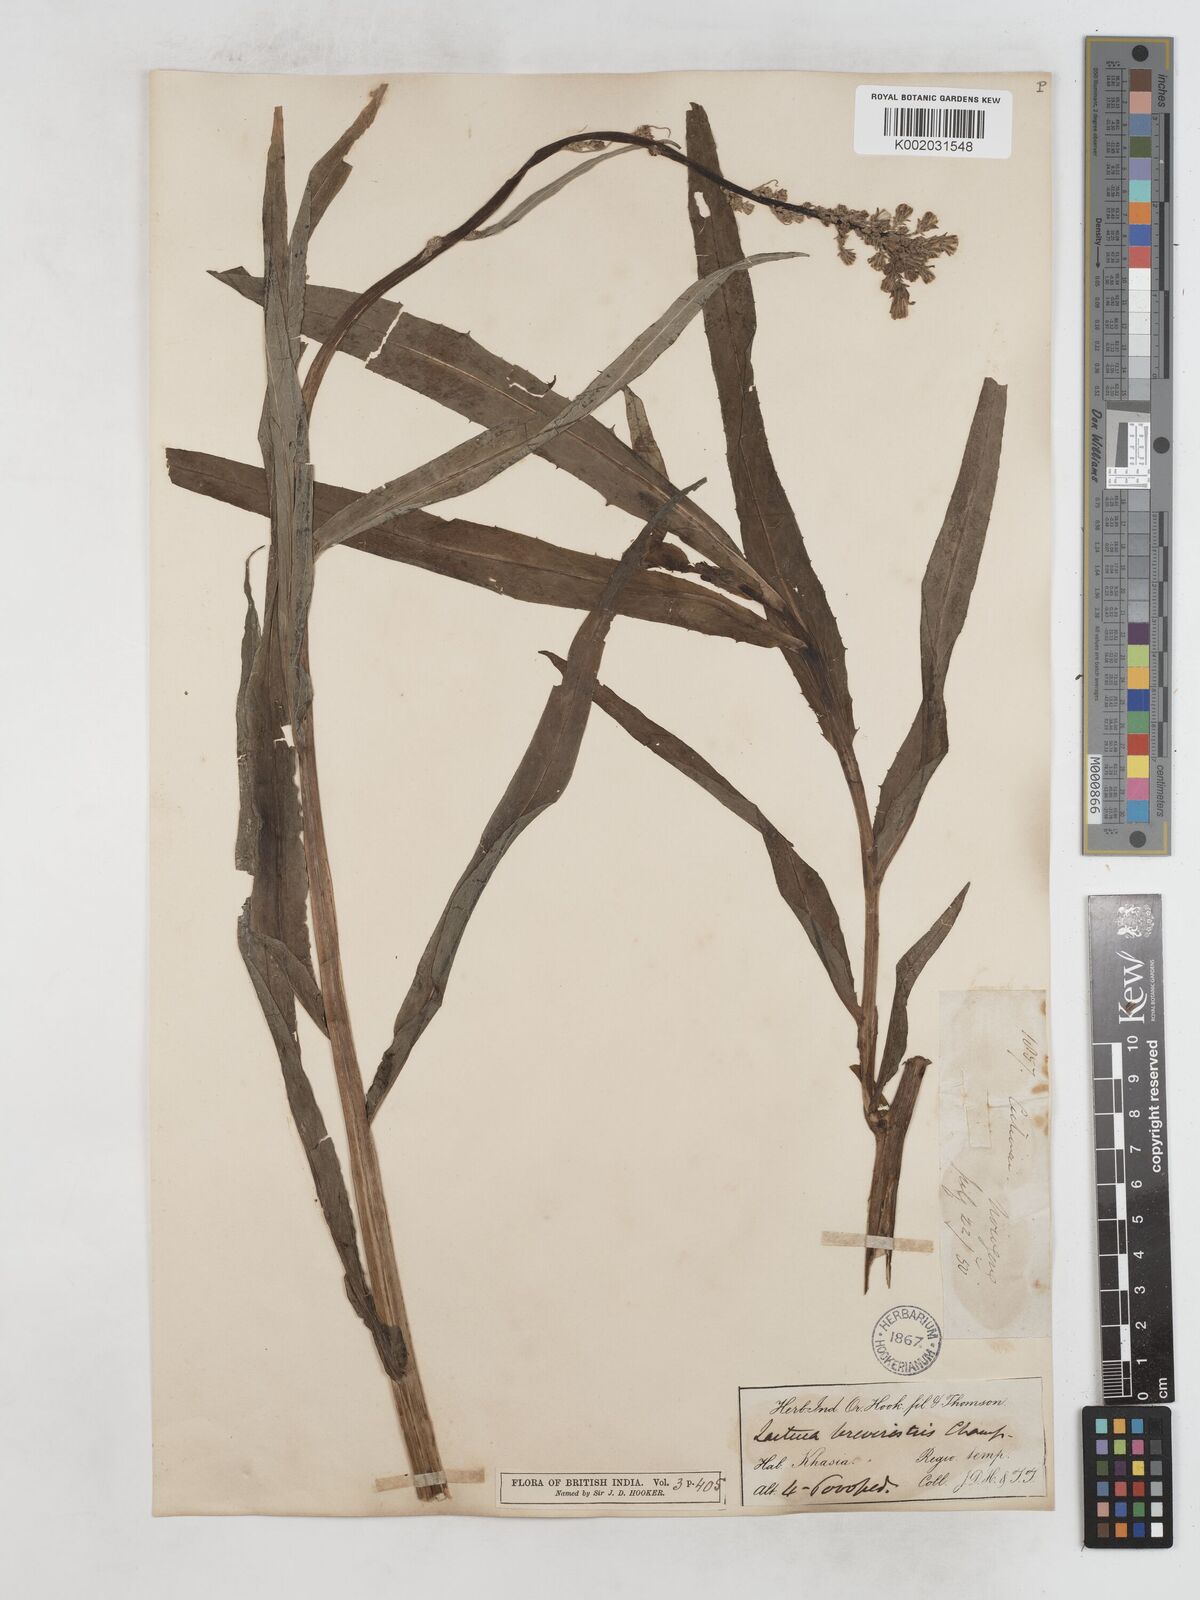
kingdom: Plantae
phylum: Tracheophyta
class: Magnoliopsida
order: Asterales
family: Asteraceae
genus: Lactuca
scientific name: Lactuca indica
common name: Wild lettuce
